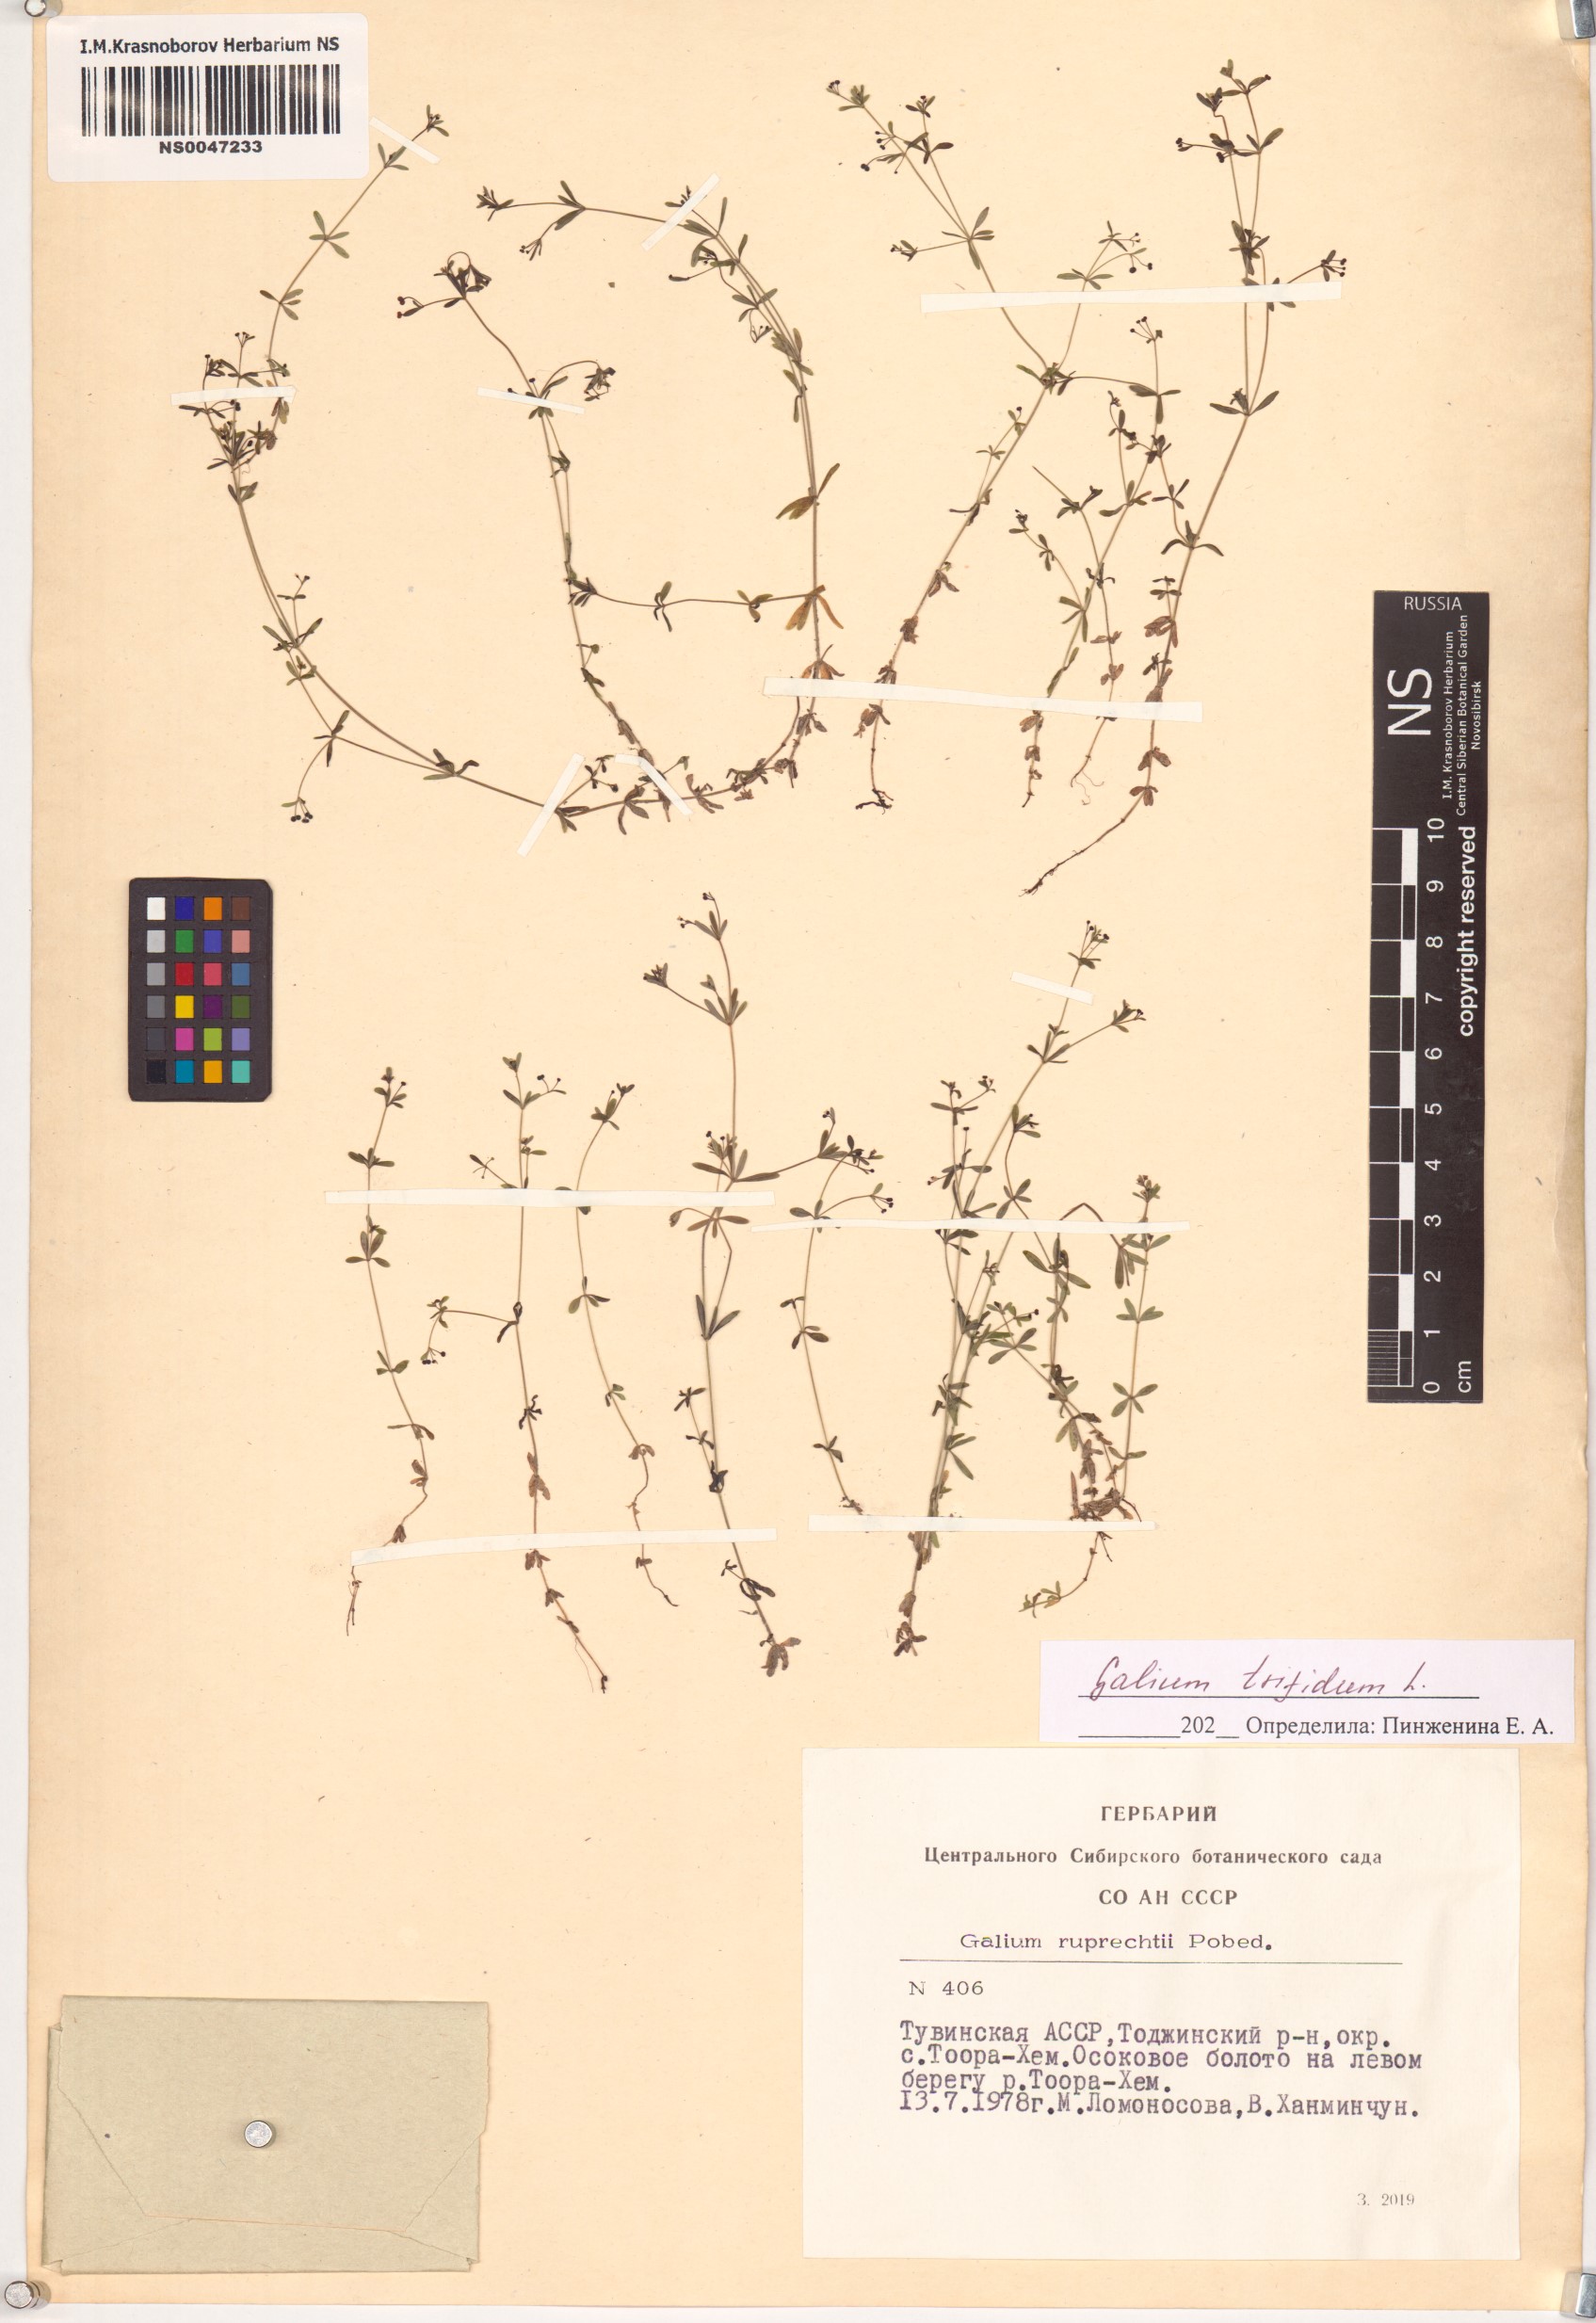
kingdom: Plantae
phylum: Tracheophyta
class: Magnoliopsida
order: Gentianales
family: Rubiaceae
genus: Galium
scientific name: Galium trifidum
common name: Small bedstraw
